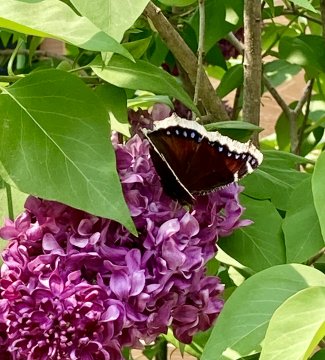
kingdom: Animalia
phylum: Arthropoda
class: Insecta
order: Lepidoptera
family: Nymphalidae
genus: Nymphalis
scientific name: Nymphalis antiopa
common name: Mourning Cloak
